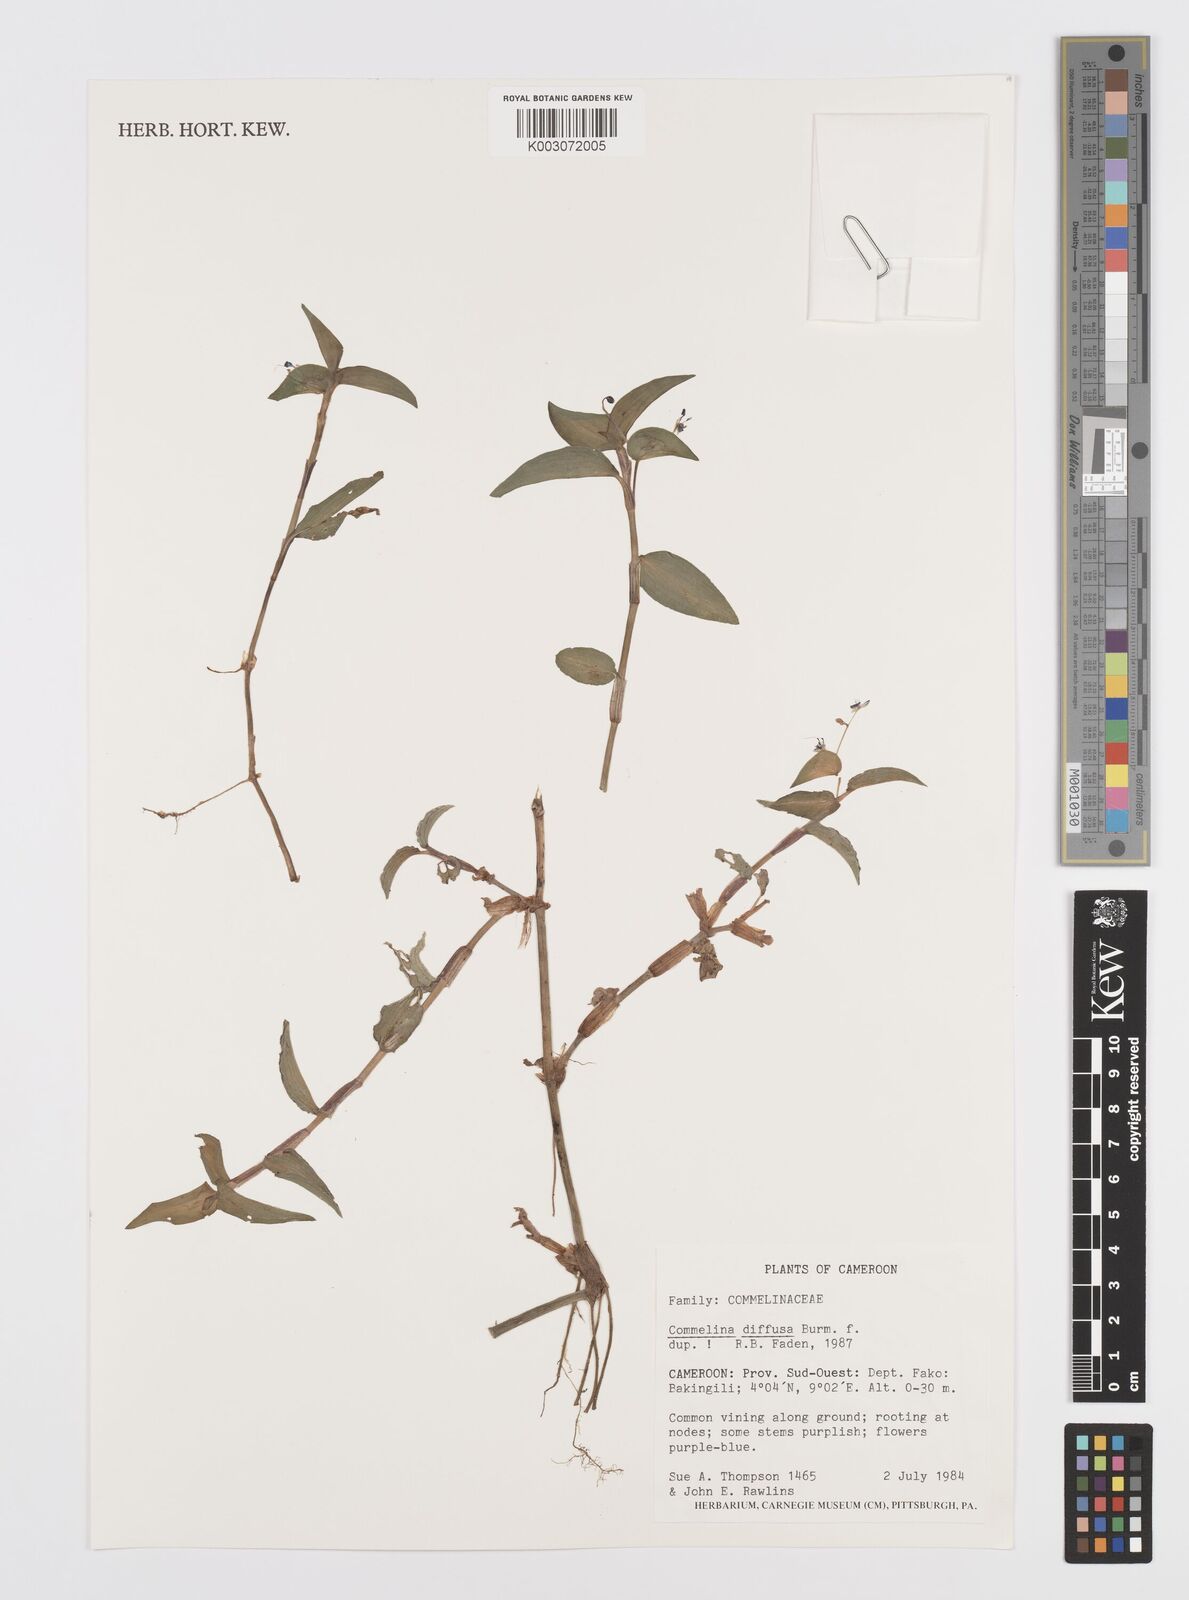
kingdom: Plantae
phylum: Tracheophyta
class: Liliopsida
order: Commelinales
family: Commelinaceae
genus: Commelina
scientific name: Commelina diffusa
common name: Climbing dayflower
